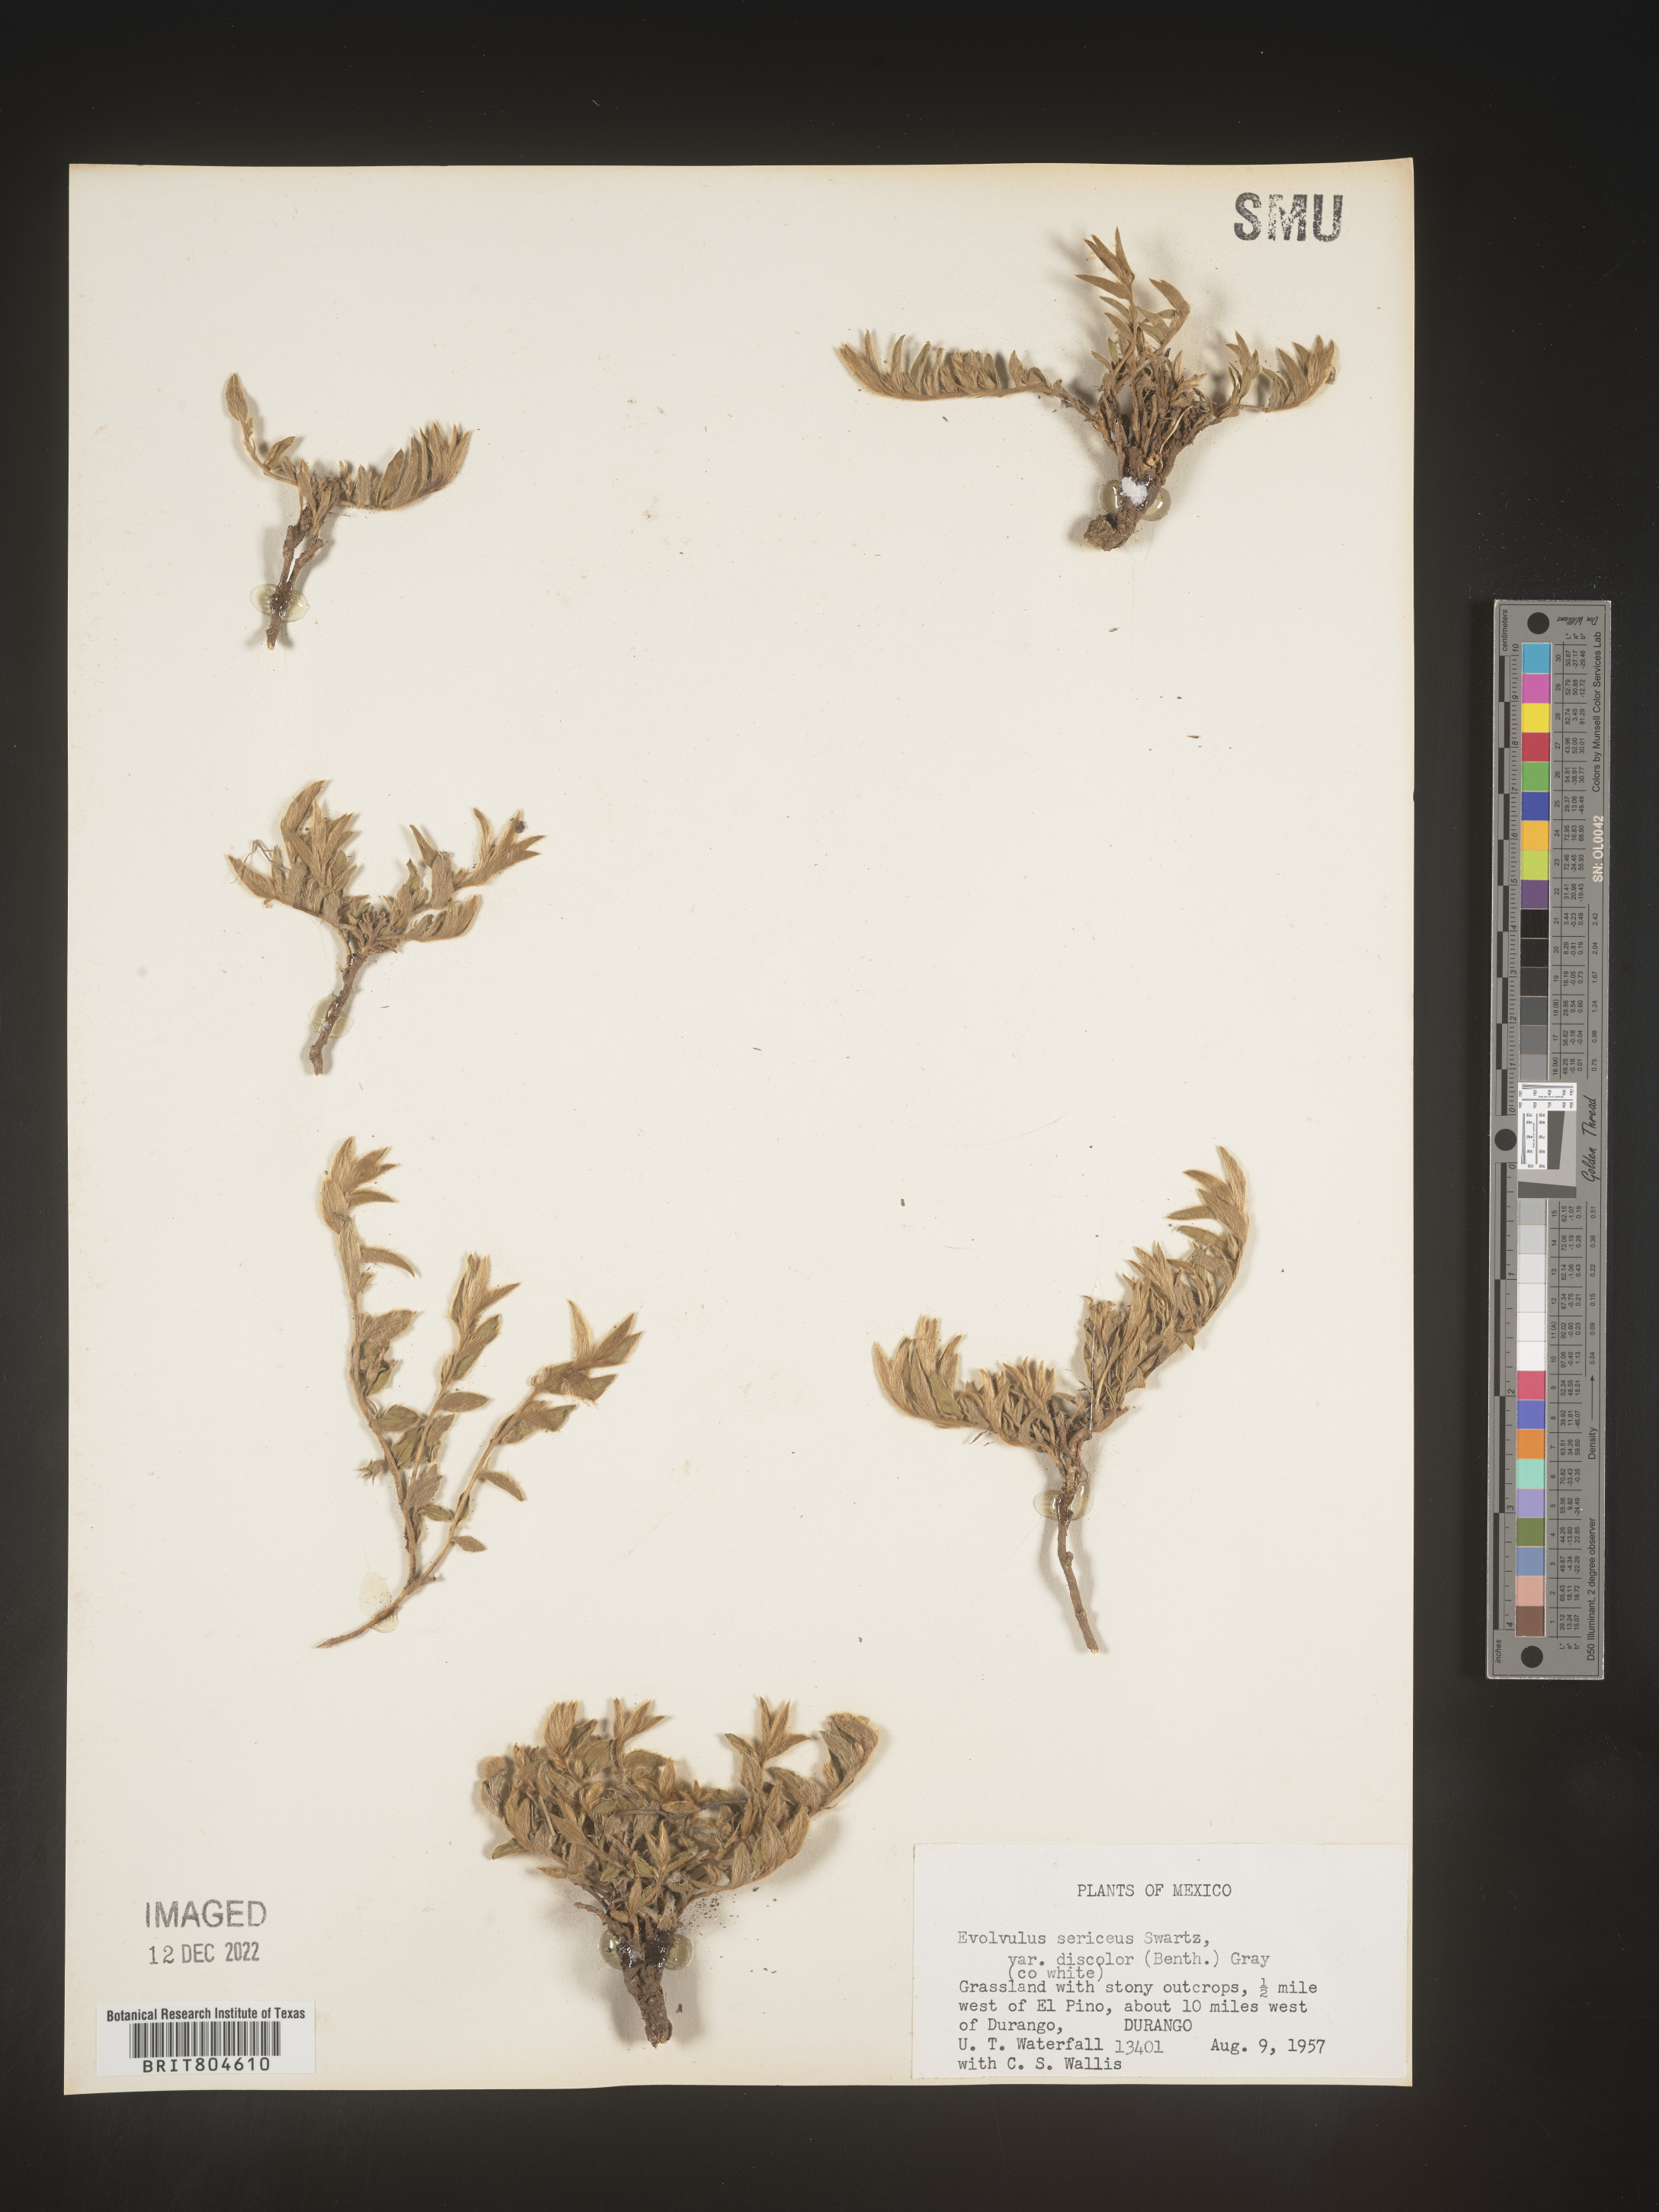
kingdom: Plantae
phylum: Tracheophyta
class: Magnoliopsida
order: Solanales
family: Convolvulaceae
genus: Evolvulus
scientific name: Evolvulus
